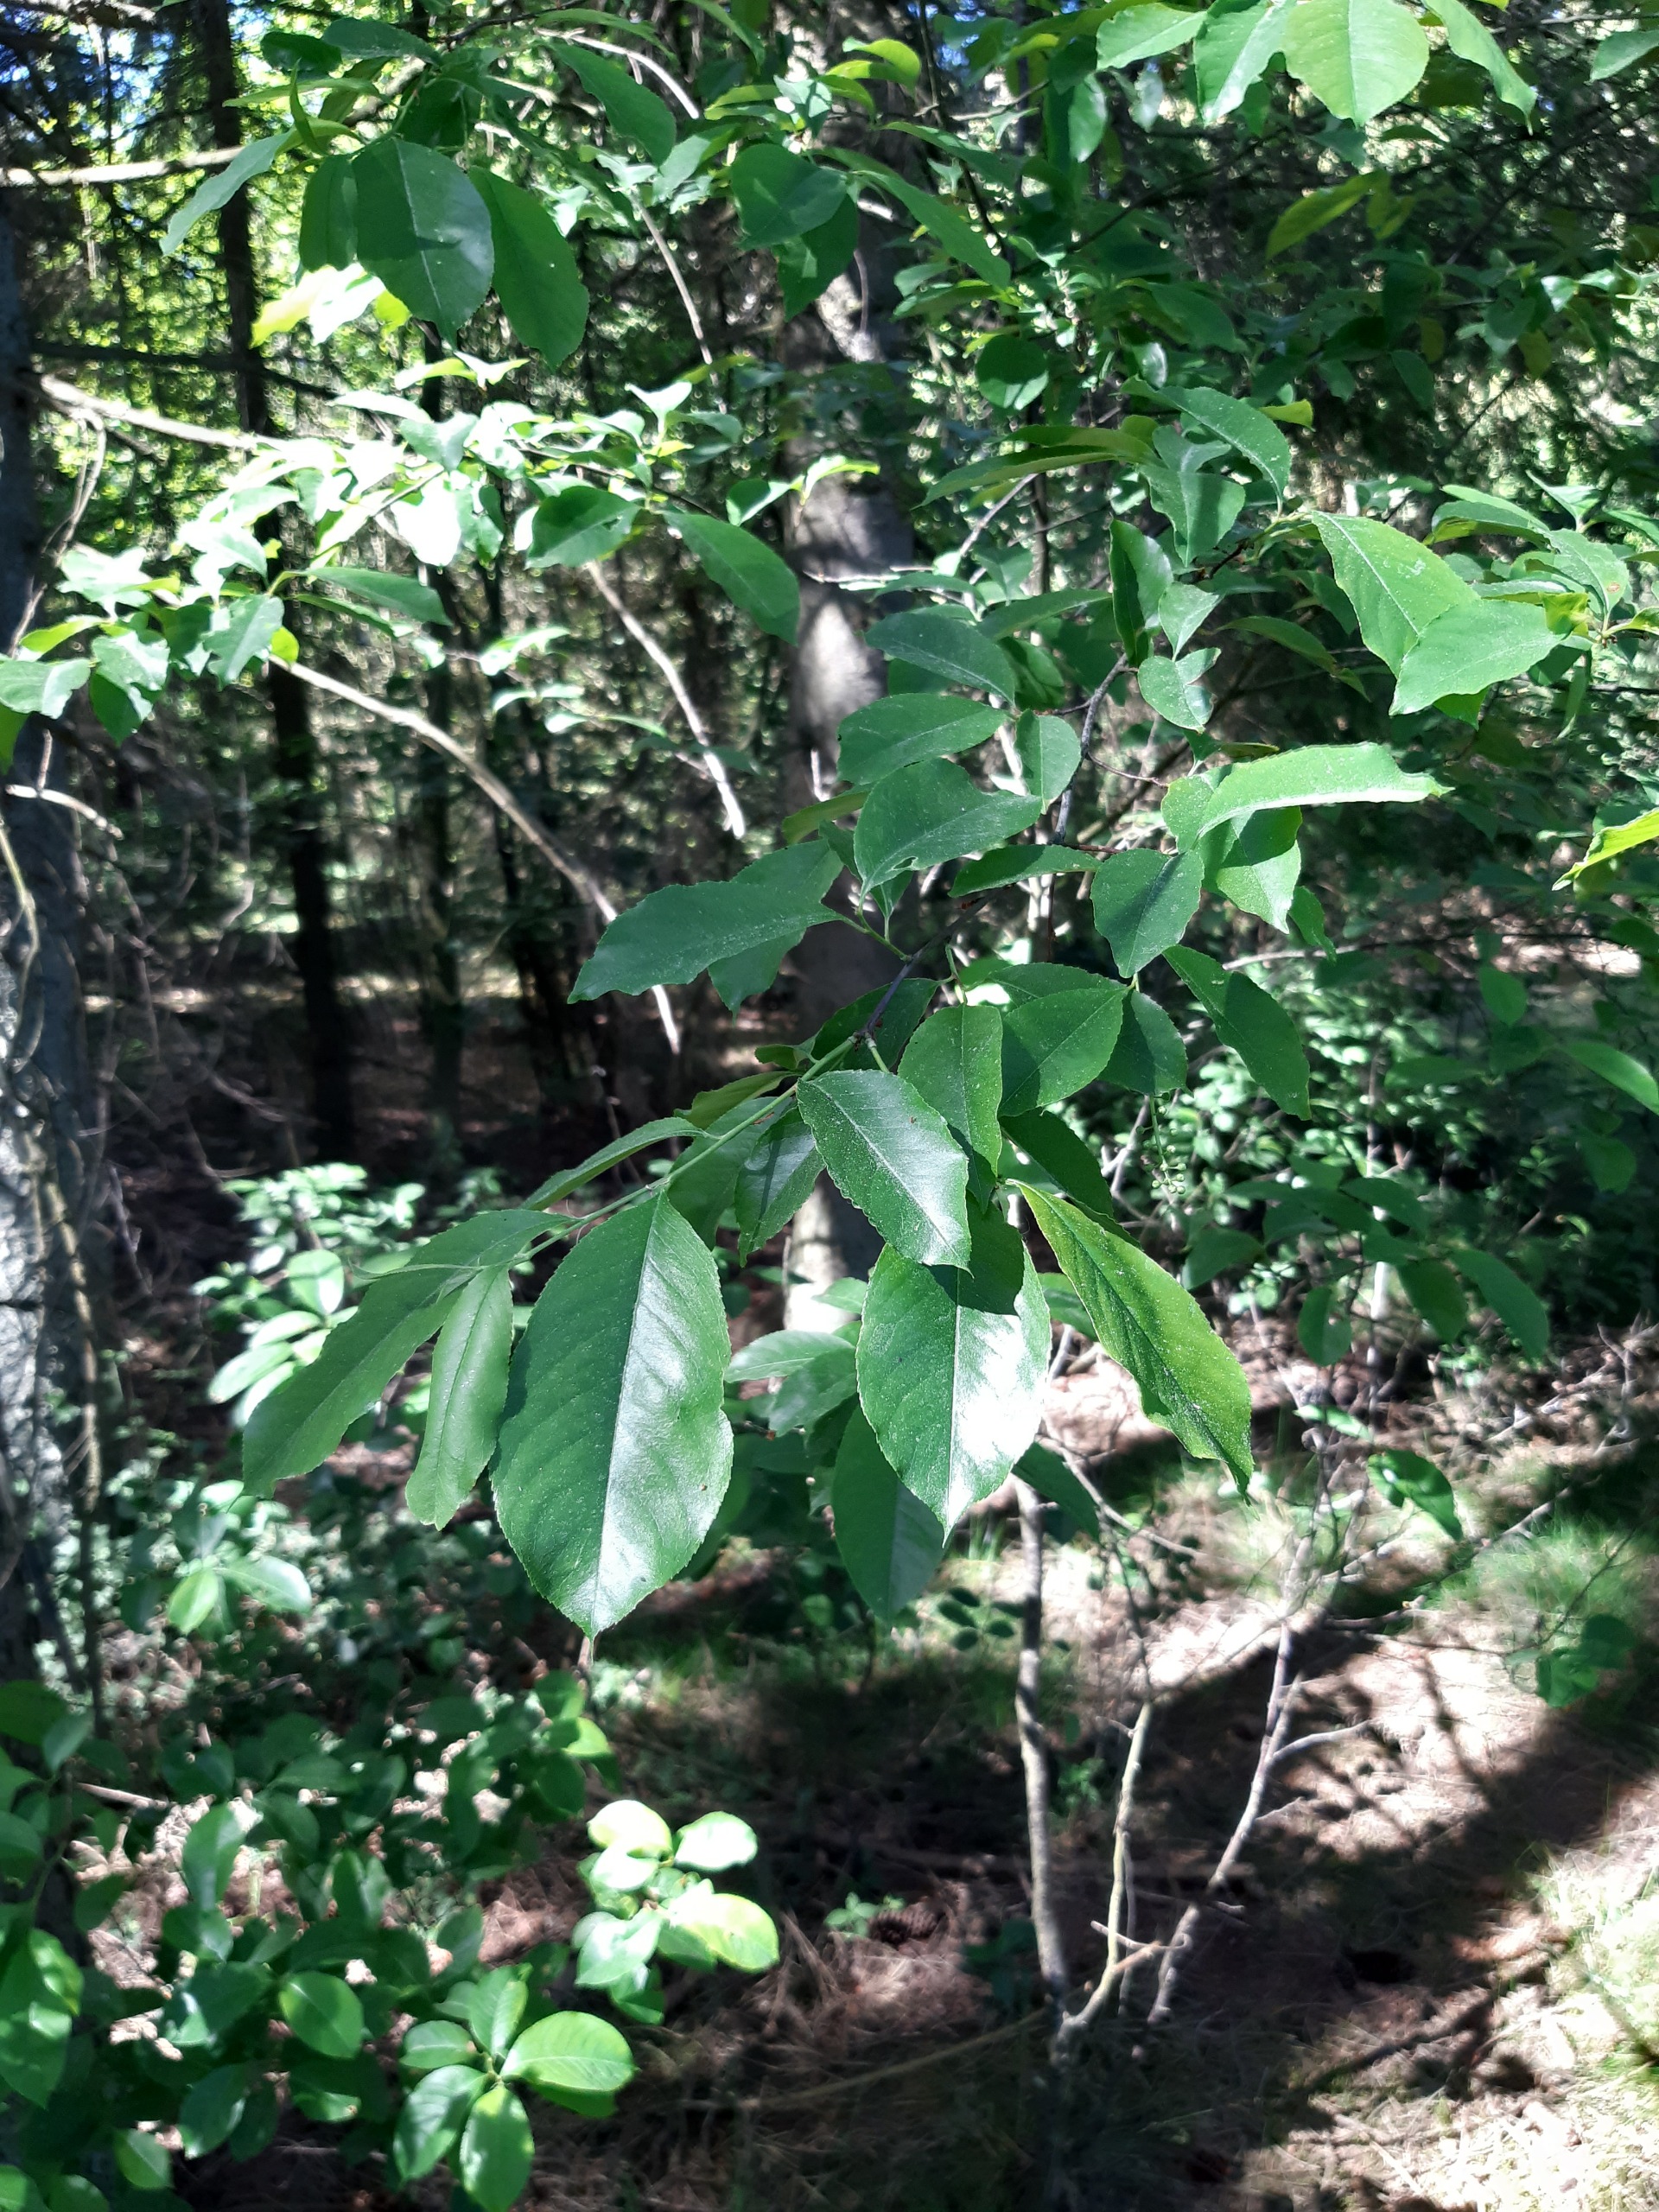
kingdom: Plantae
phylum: Tracheophyta
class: Magnoliopsida
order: Rosales
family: Rosaceae
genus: Prunus
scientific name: Prunus serotina
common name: Glansbladet hæg
